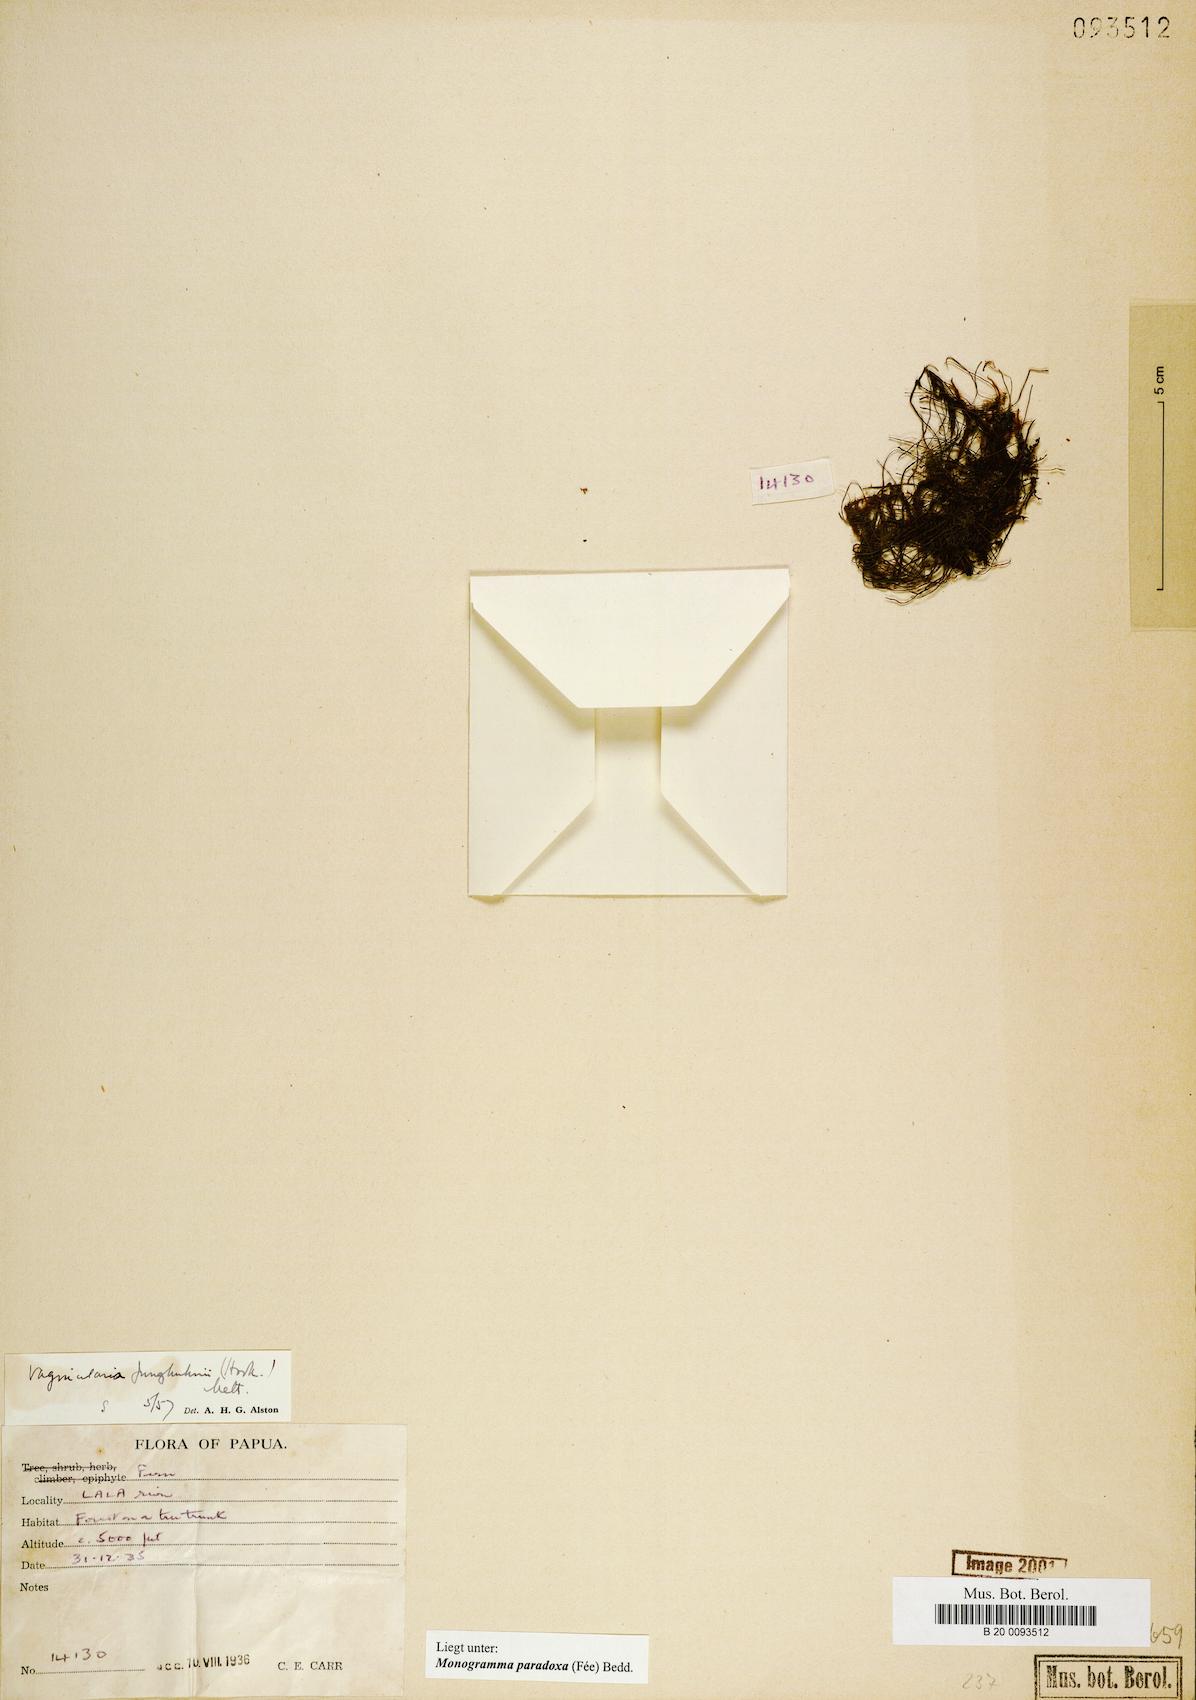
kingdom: Plantae
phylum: Tracheophyta
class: Polypodiopsida
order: Polypodiales
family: Pteridaceae
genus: Vaginularia
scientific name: Vaginularia paradoxa
